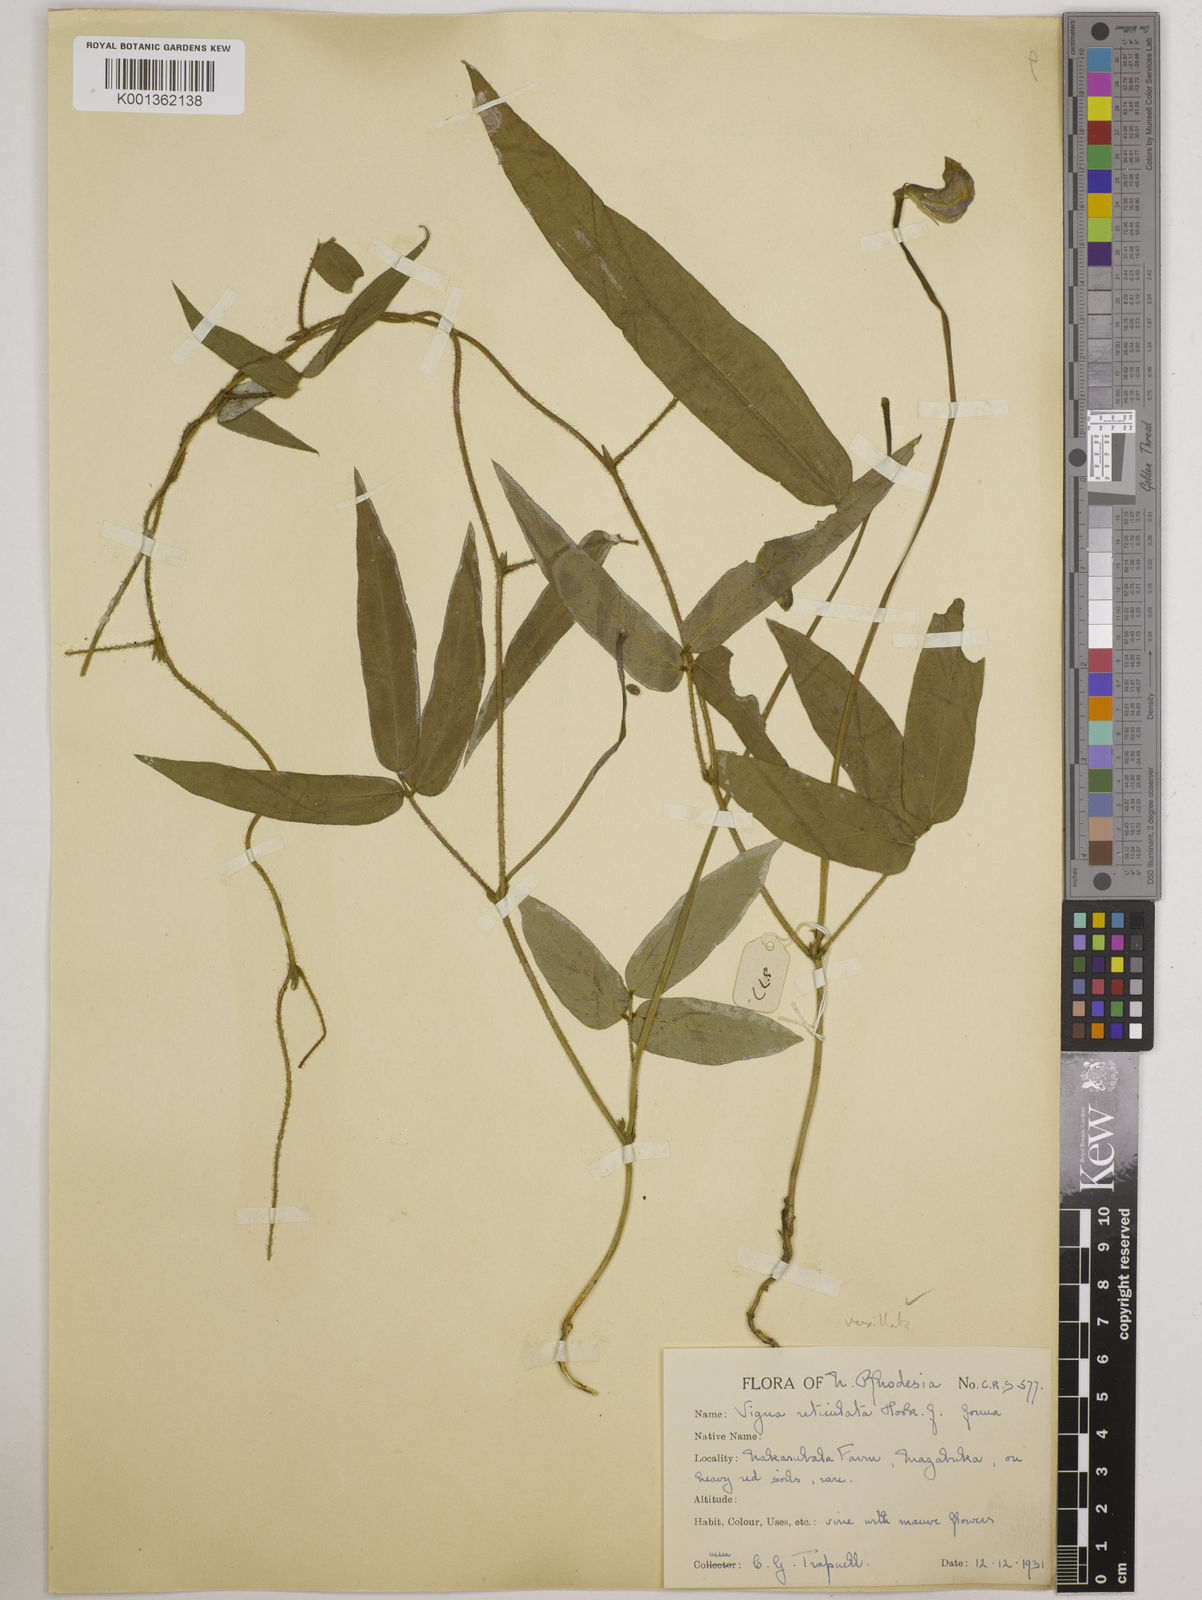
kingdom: Plantae
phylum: Tracheophyta
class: Magnoliopsida
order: Fabales
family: Fabaceae
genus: Vigna
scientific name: Vigna vexillata
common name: Zombi pea
